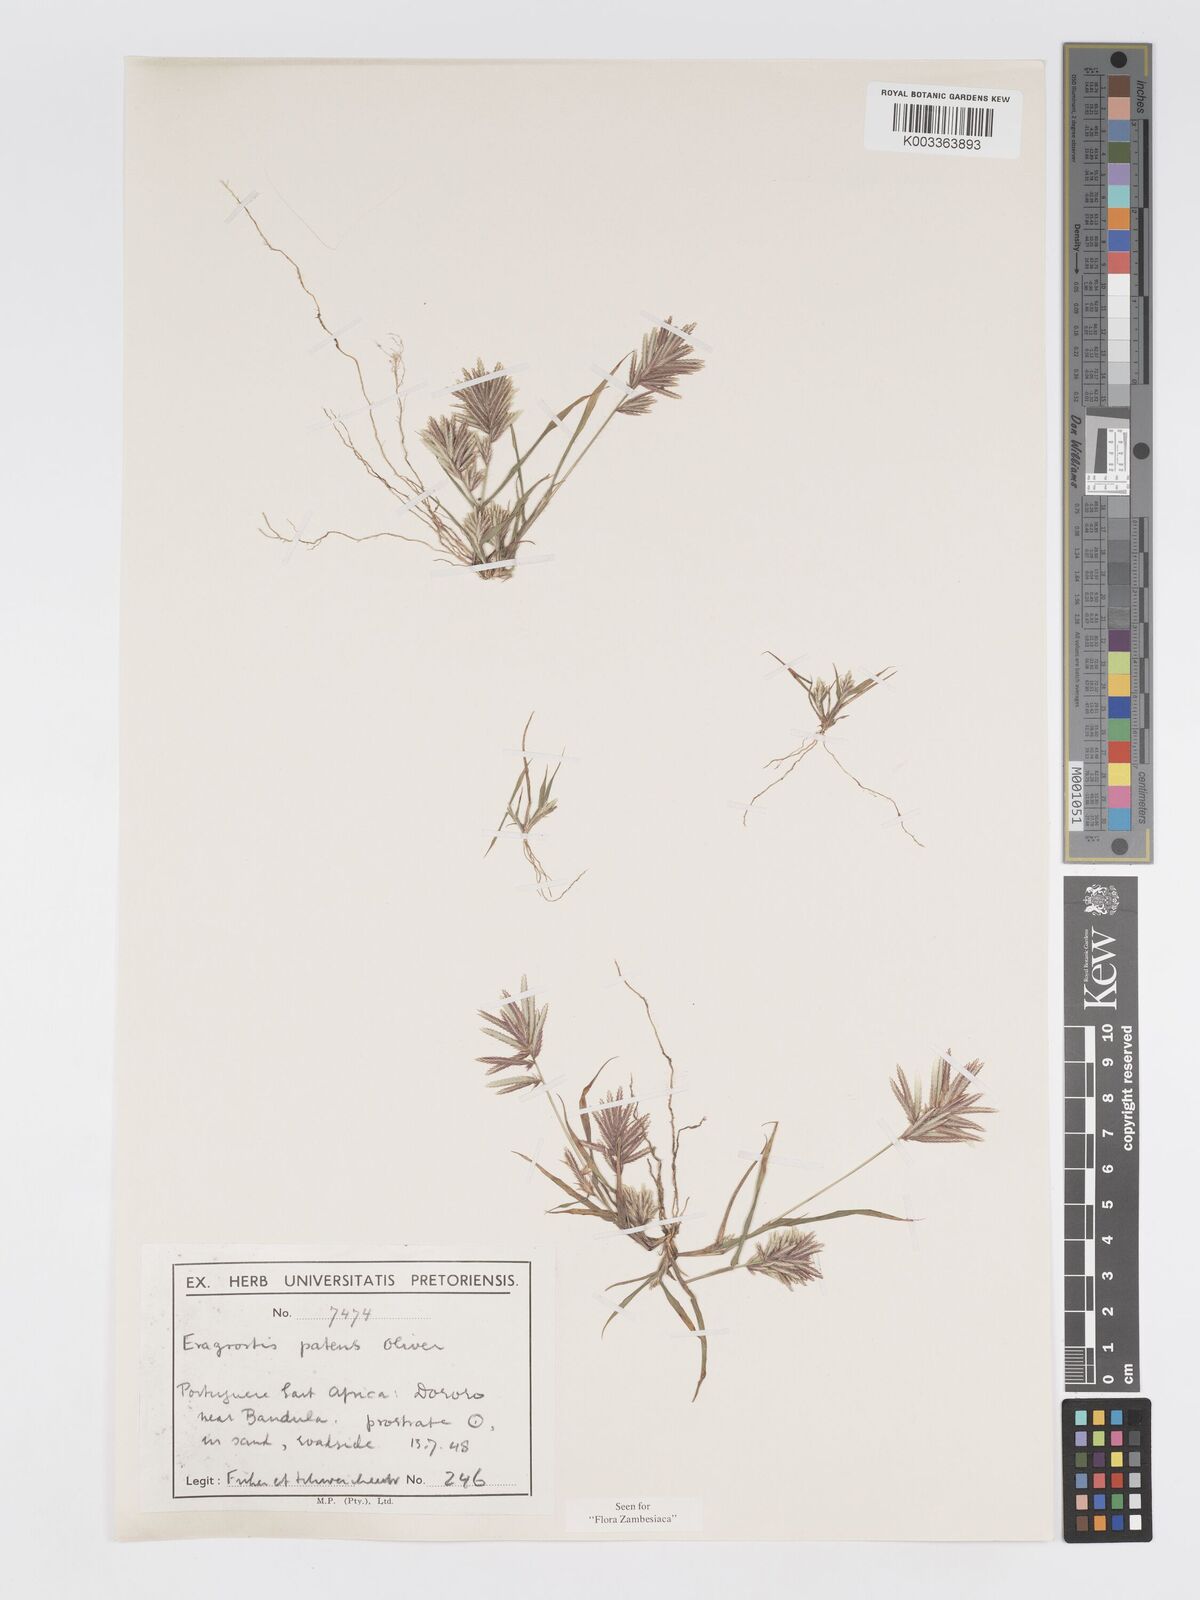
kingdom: Plantae
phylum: Tracheophyta
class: Liliopsida
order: Poales
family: Poaceae
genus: Eragrostis
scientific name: Eragrostis patens
